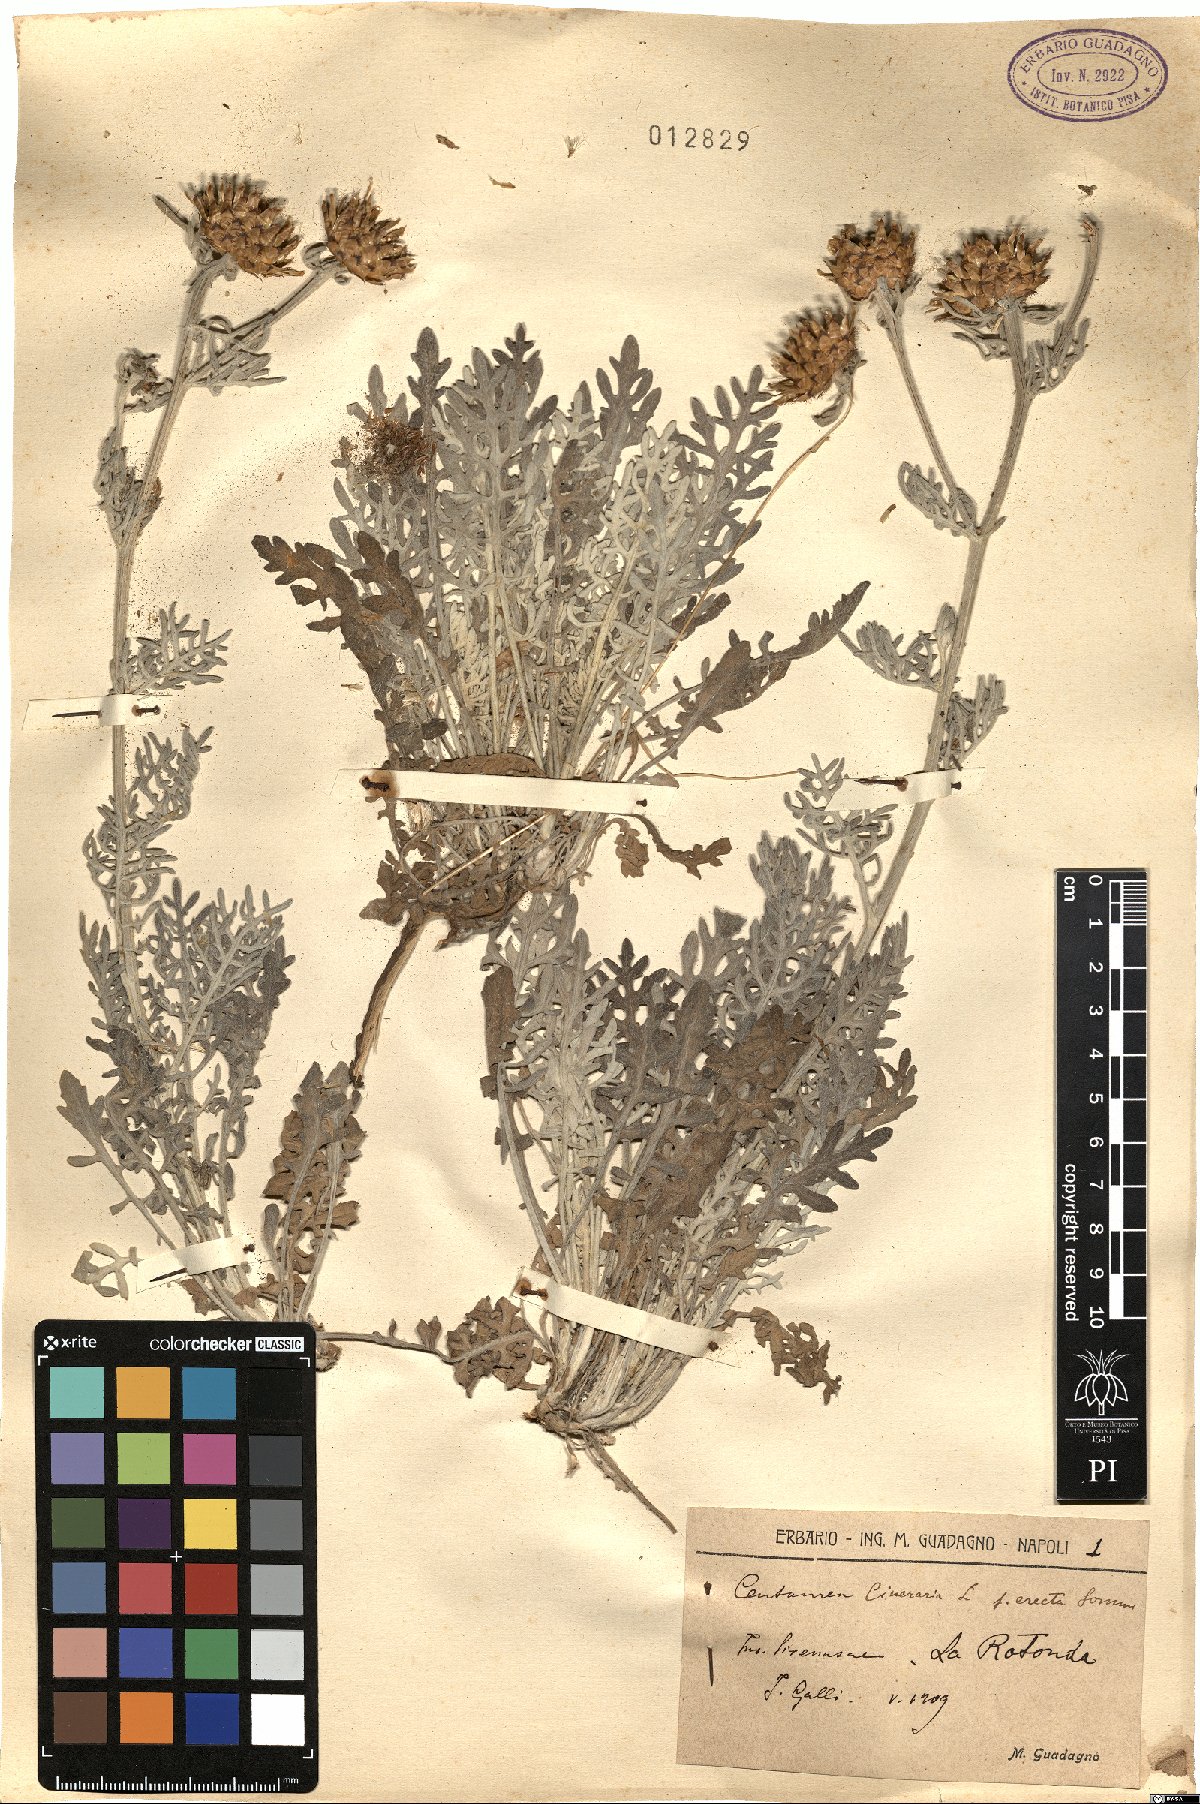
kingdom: Plantae
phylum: Tracheophyta
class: Magnoliopsida
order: Asterales
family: Asteraceae
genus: Centaurea
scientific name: Centaurea cineraria
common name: Dusty miller
